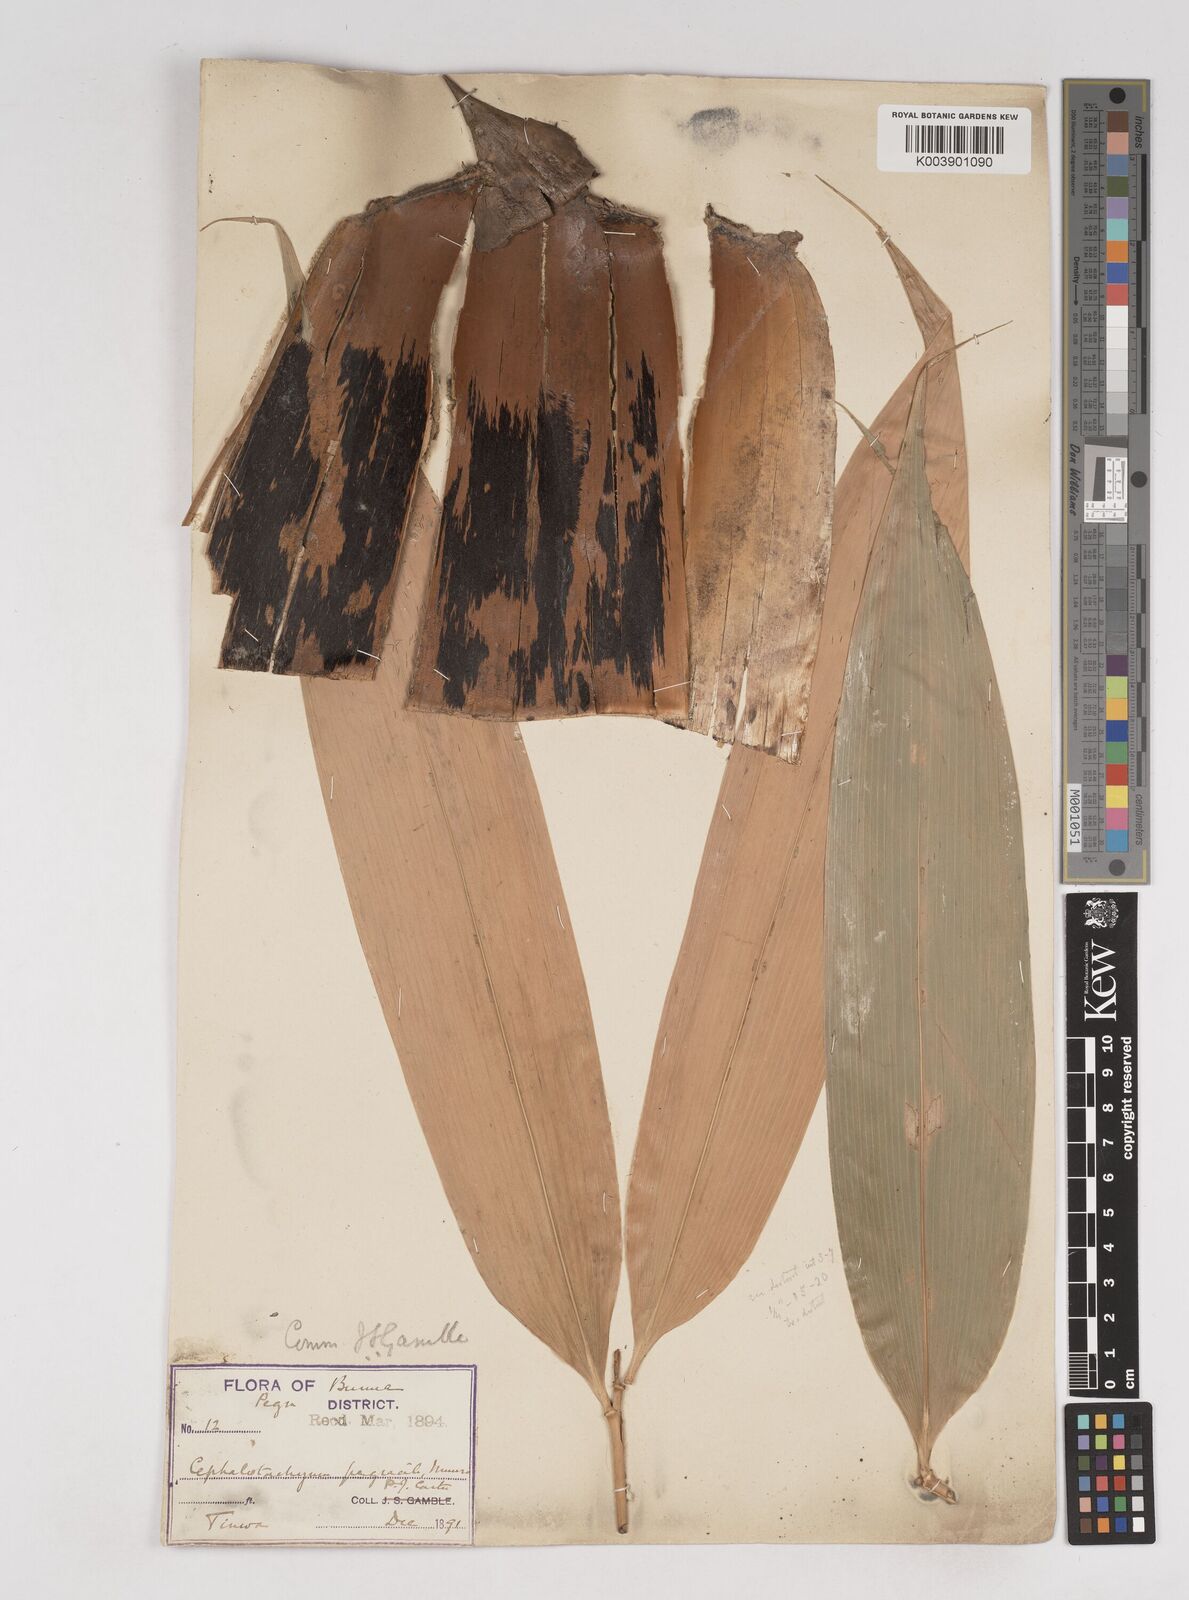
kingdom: Plantae
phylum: Tracheophyta
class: Liliopsida
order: Poales
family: Poaceae
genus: Schizostachyum
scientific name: Schizostachyum pergracile
